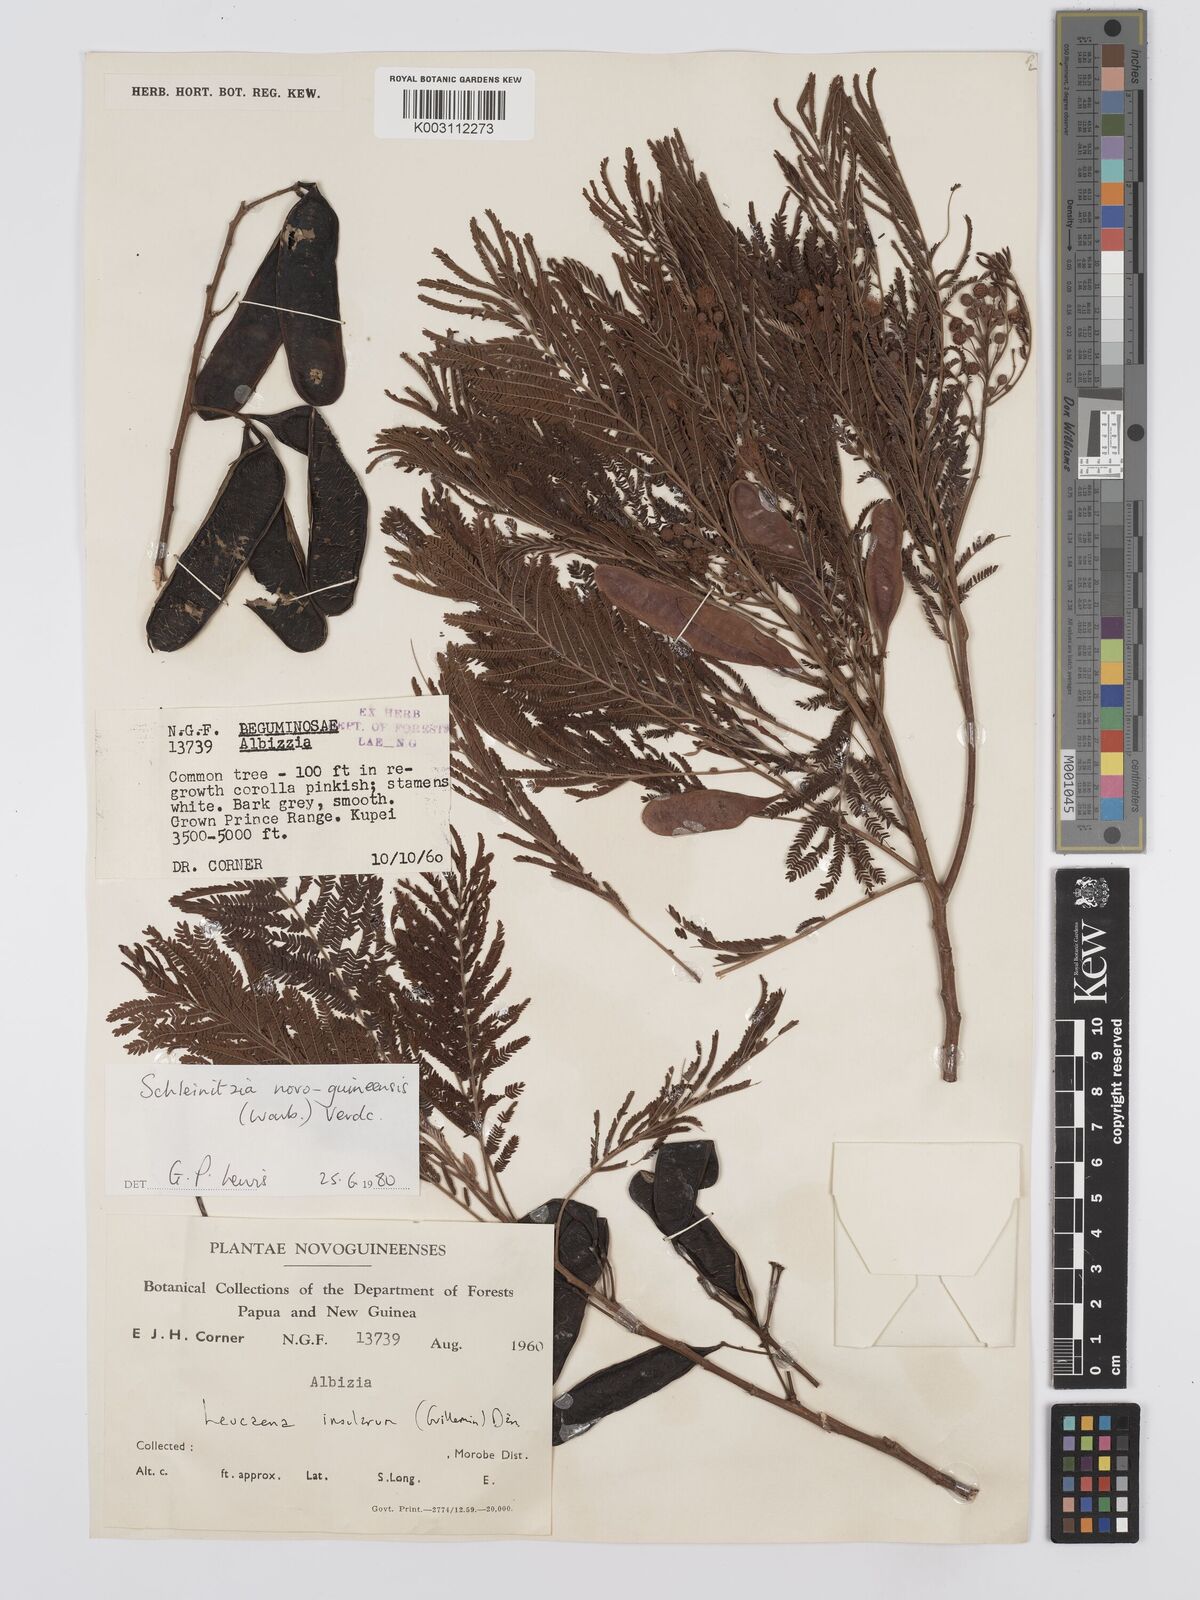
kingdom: Plantae
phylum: Tracheophyta
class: Magnoliopsida
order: Fabales
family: Fabaceae
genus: Schleinitzia
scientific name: Schleinitzia novoguineensis
